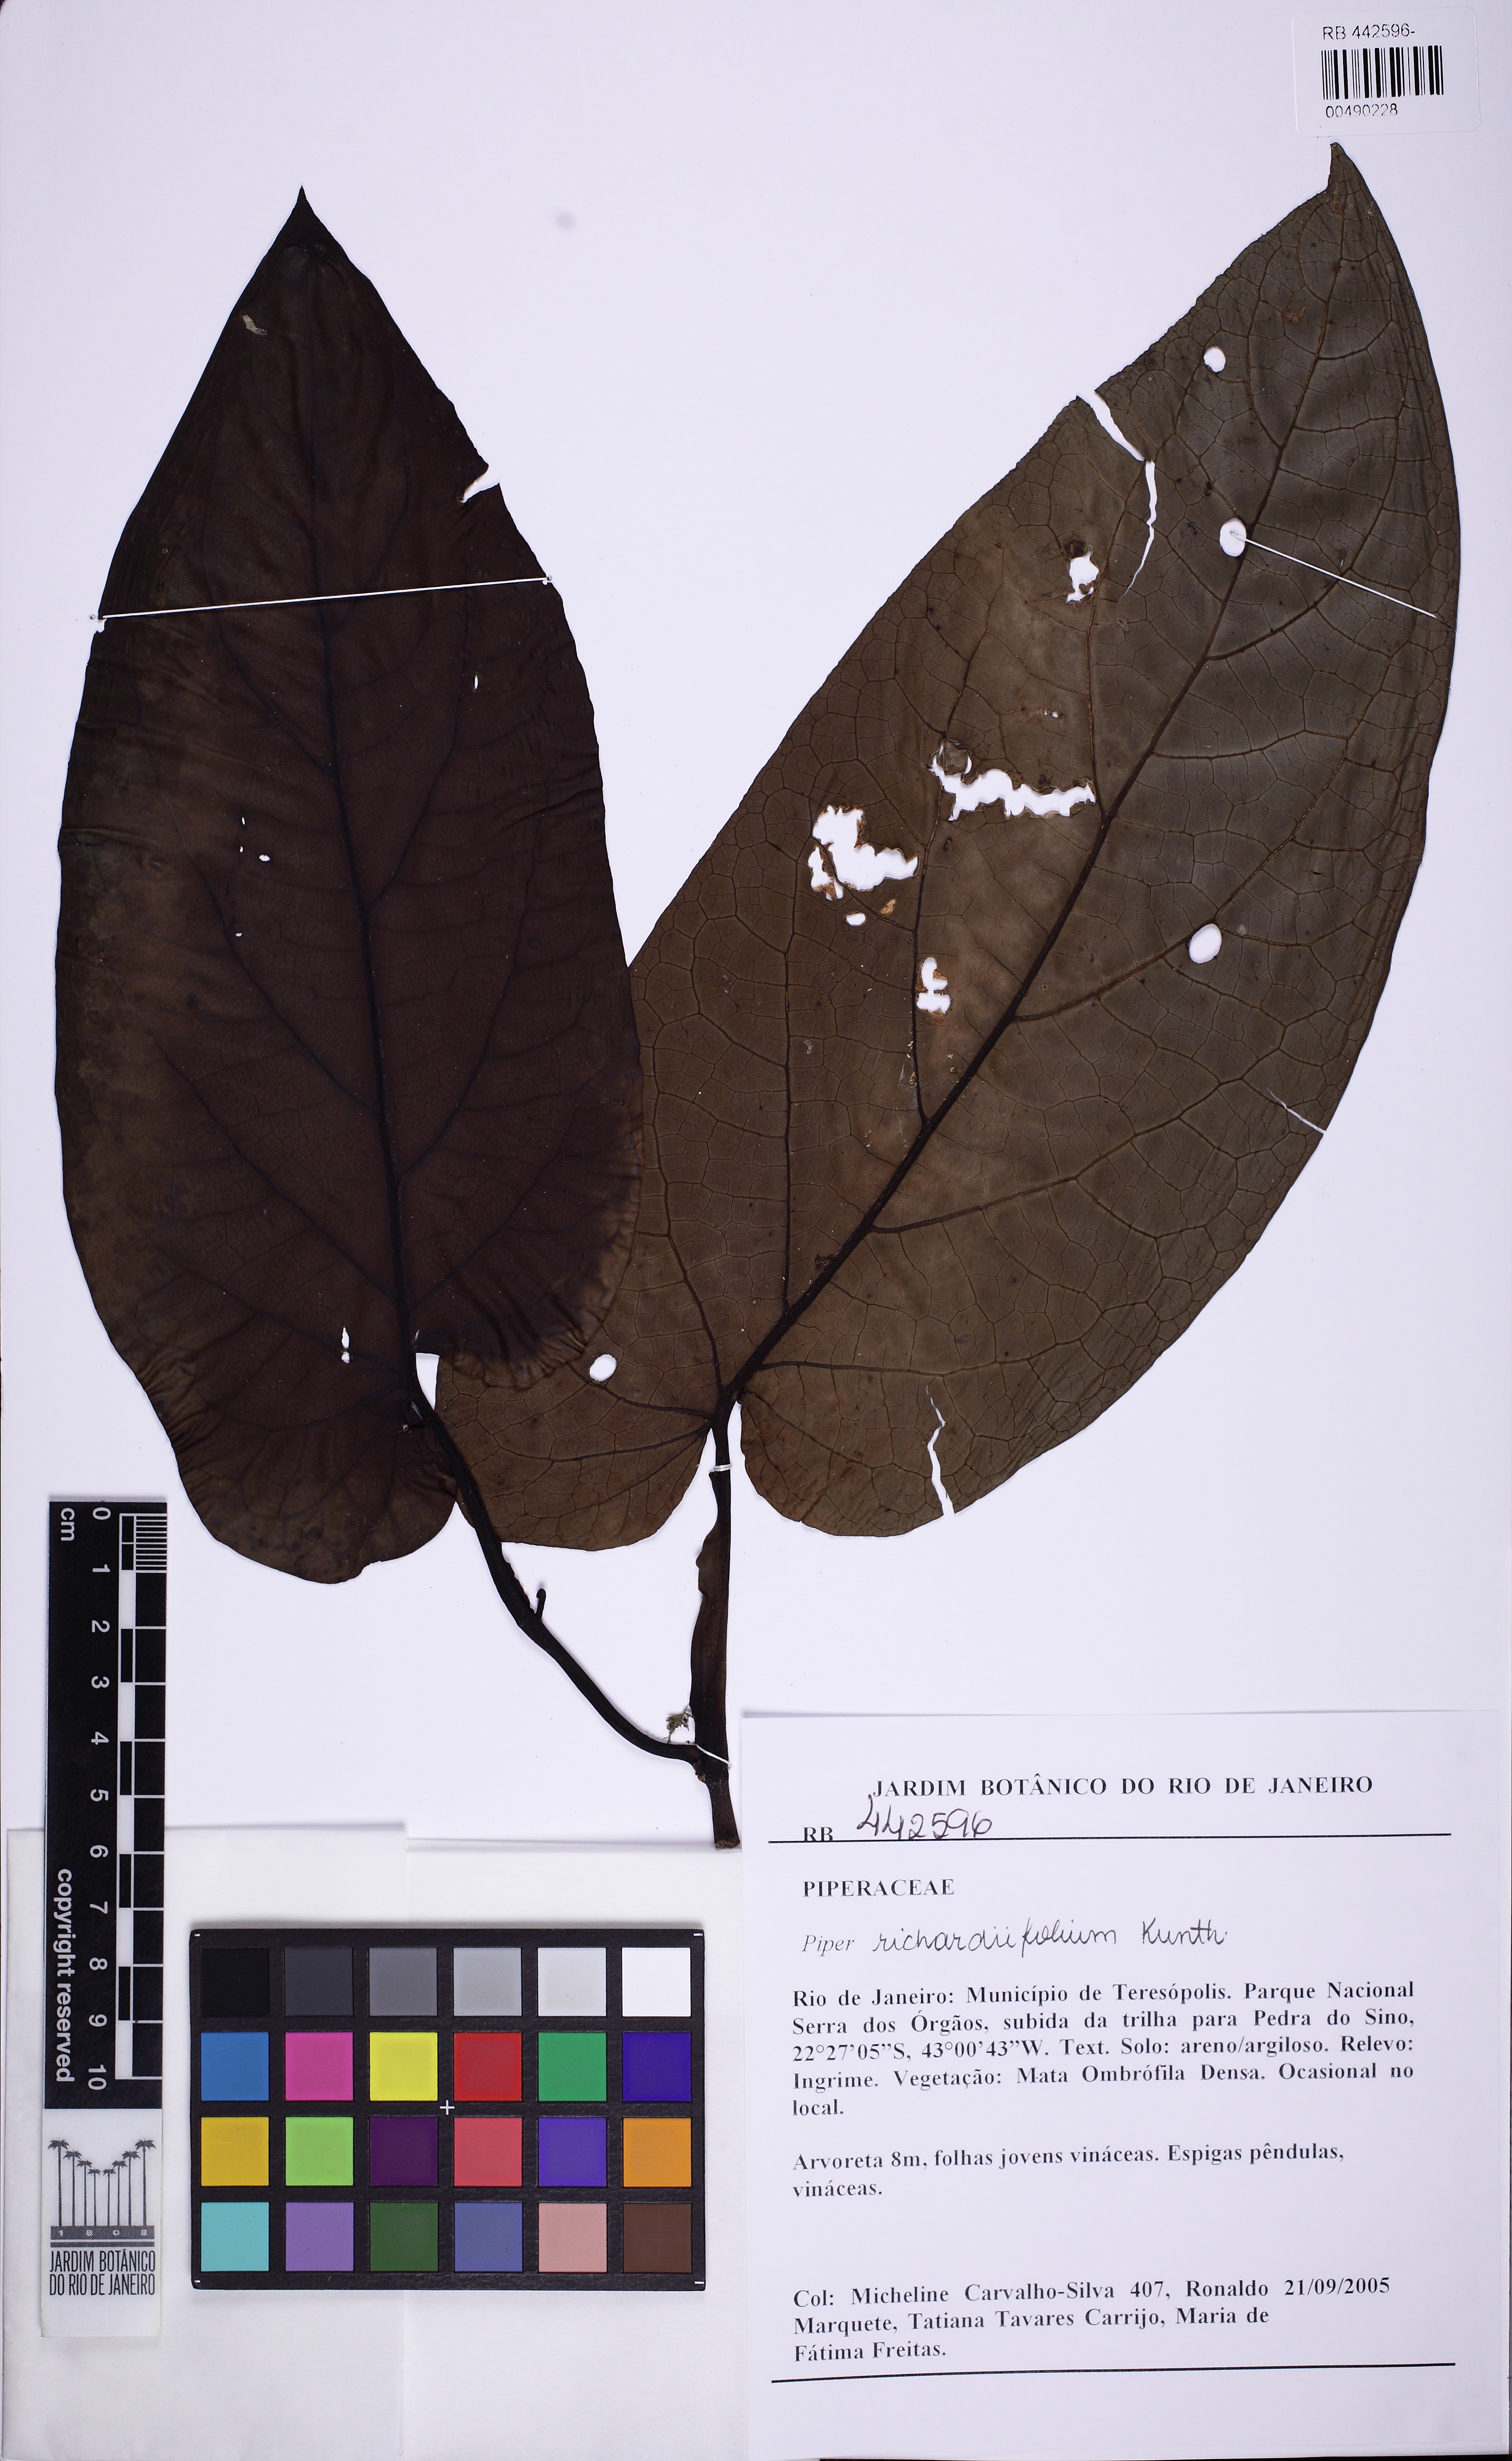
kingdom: Plantae
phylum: Tracheophyta
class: Magnoliopsida
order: Piperales
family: Piperaceae
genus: Piper
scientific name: Piper richardiifolium
